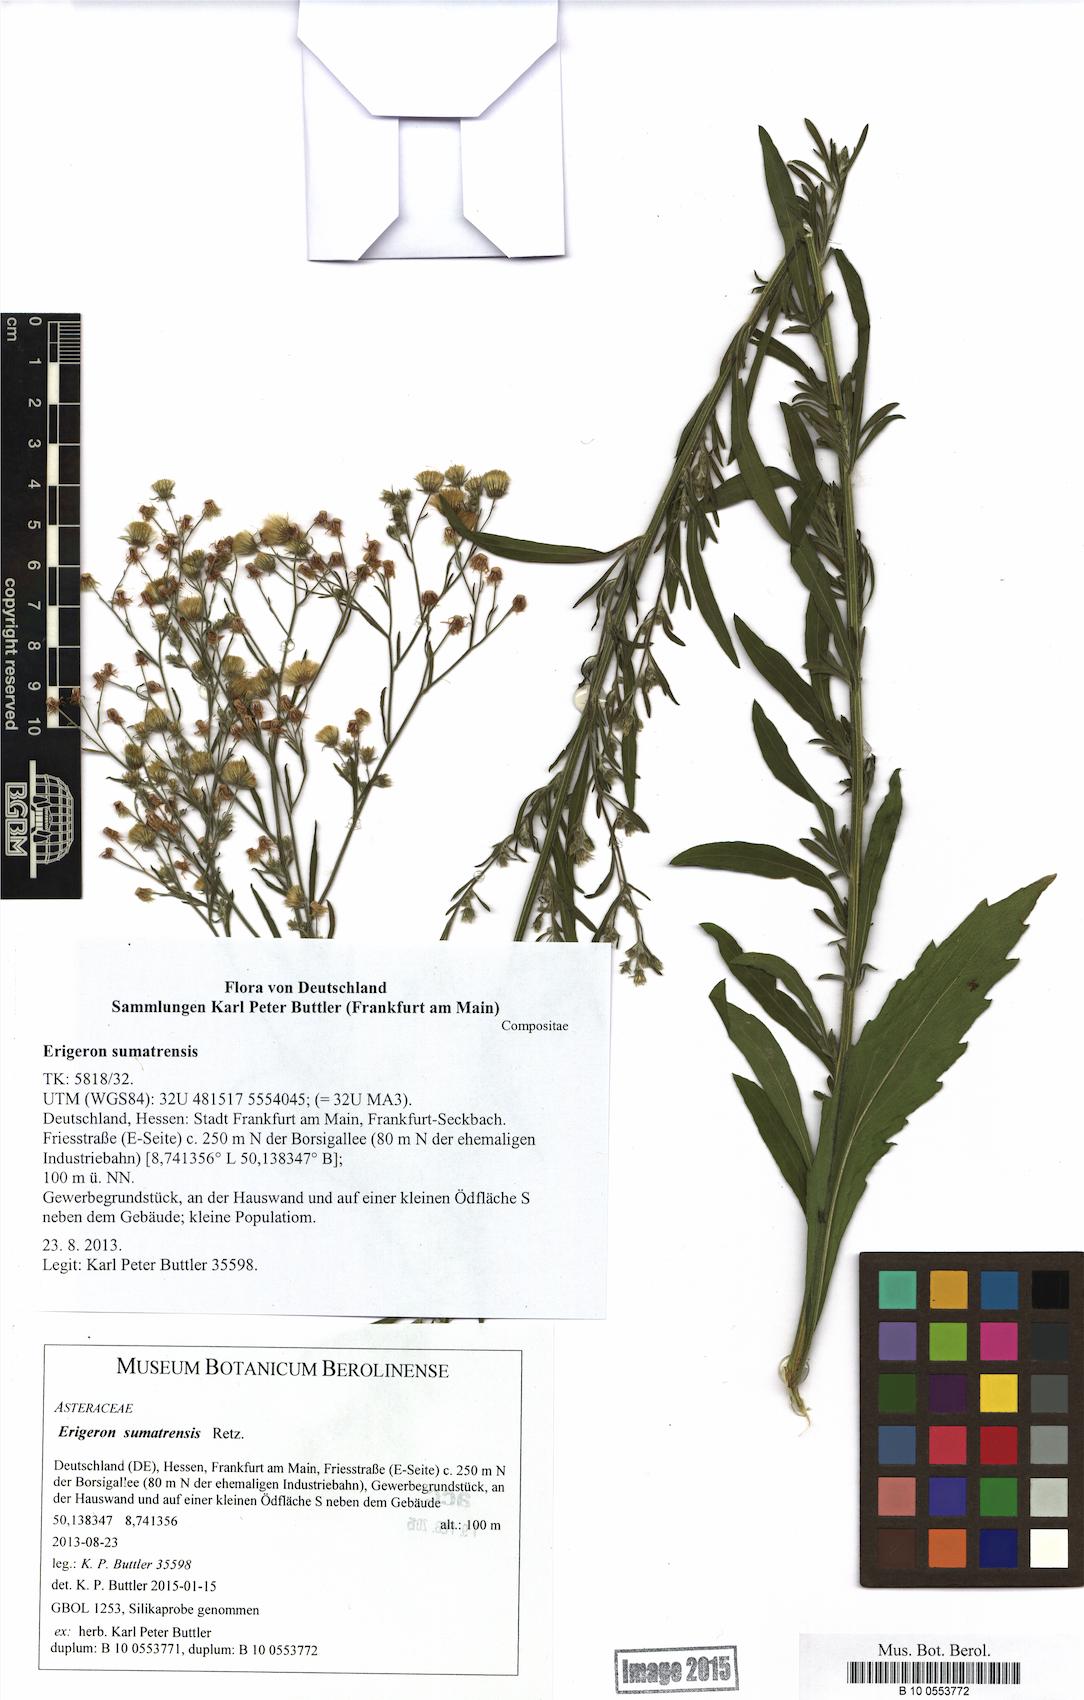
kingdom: Plantae
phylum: Tracheophyta
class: Magnoliopsida
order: Asterales
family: Asteraceae
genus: Erigeron
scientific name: Erigeron sumatrensis
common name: Daisy
